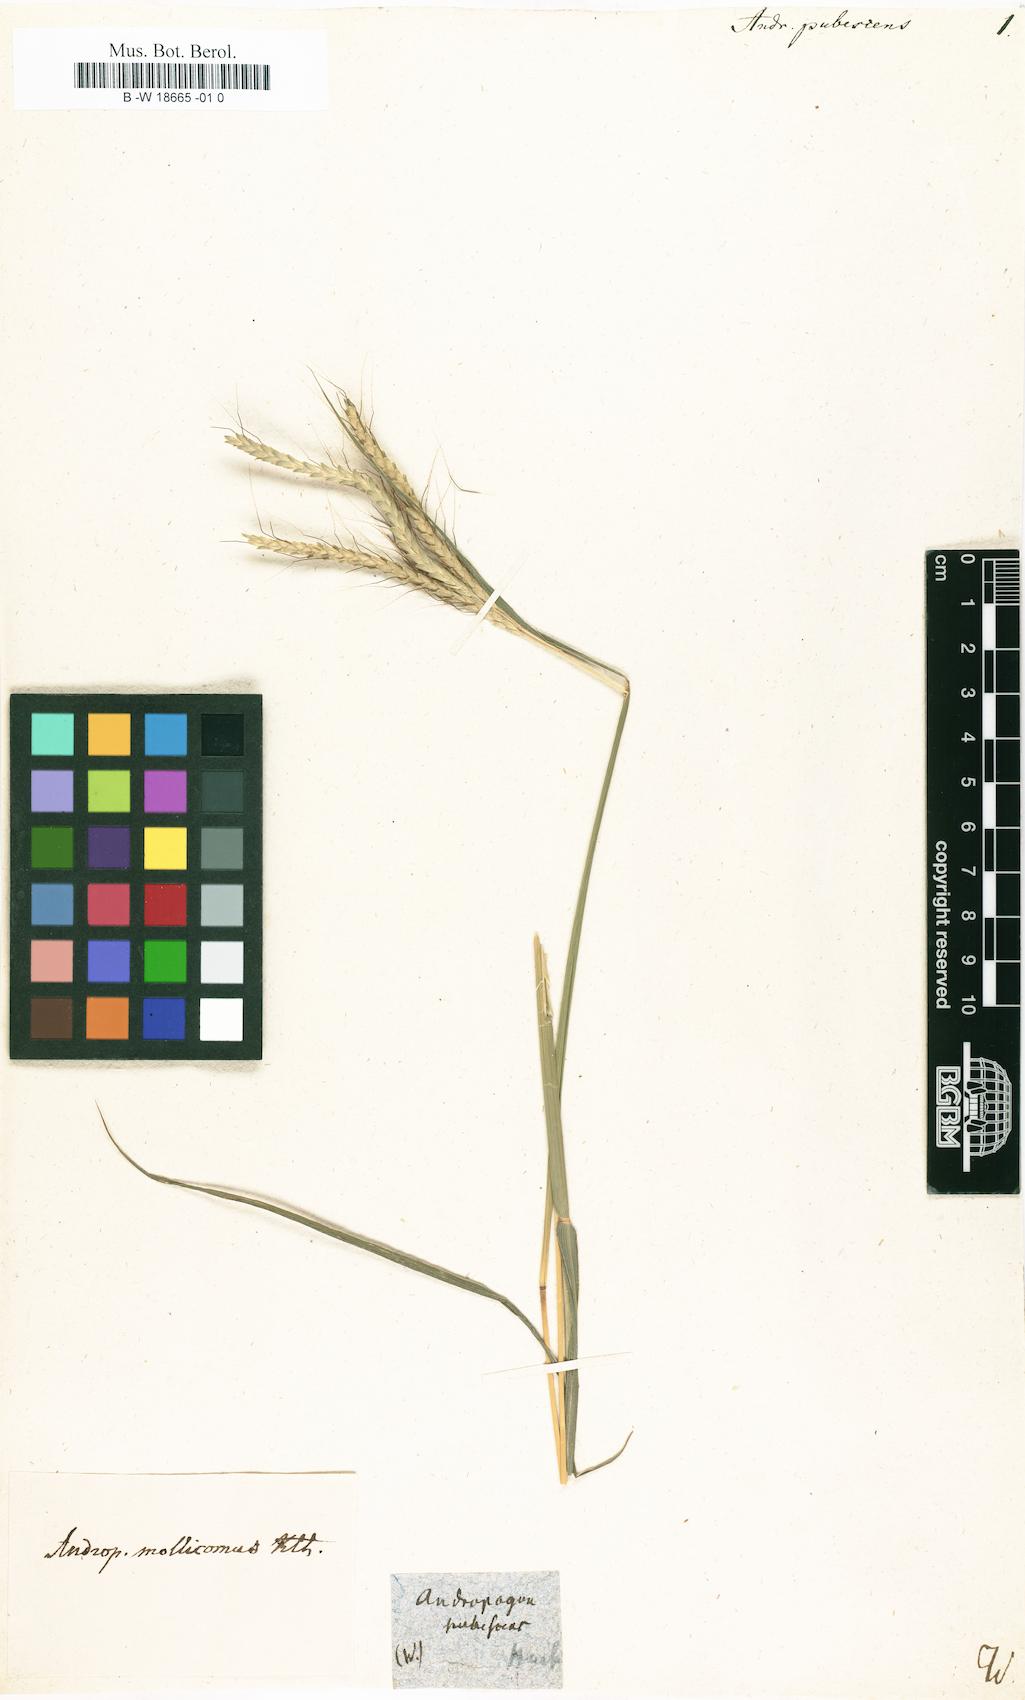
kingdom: Plantae
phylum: Tracheophyta
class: Liliopsida
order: Poales
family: Poaceae
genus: Stapfochloa
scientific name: Stapfochloa ciliata
